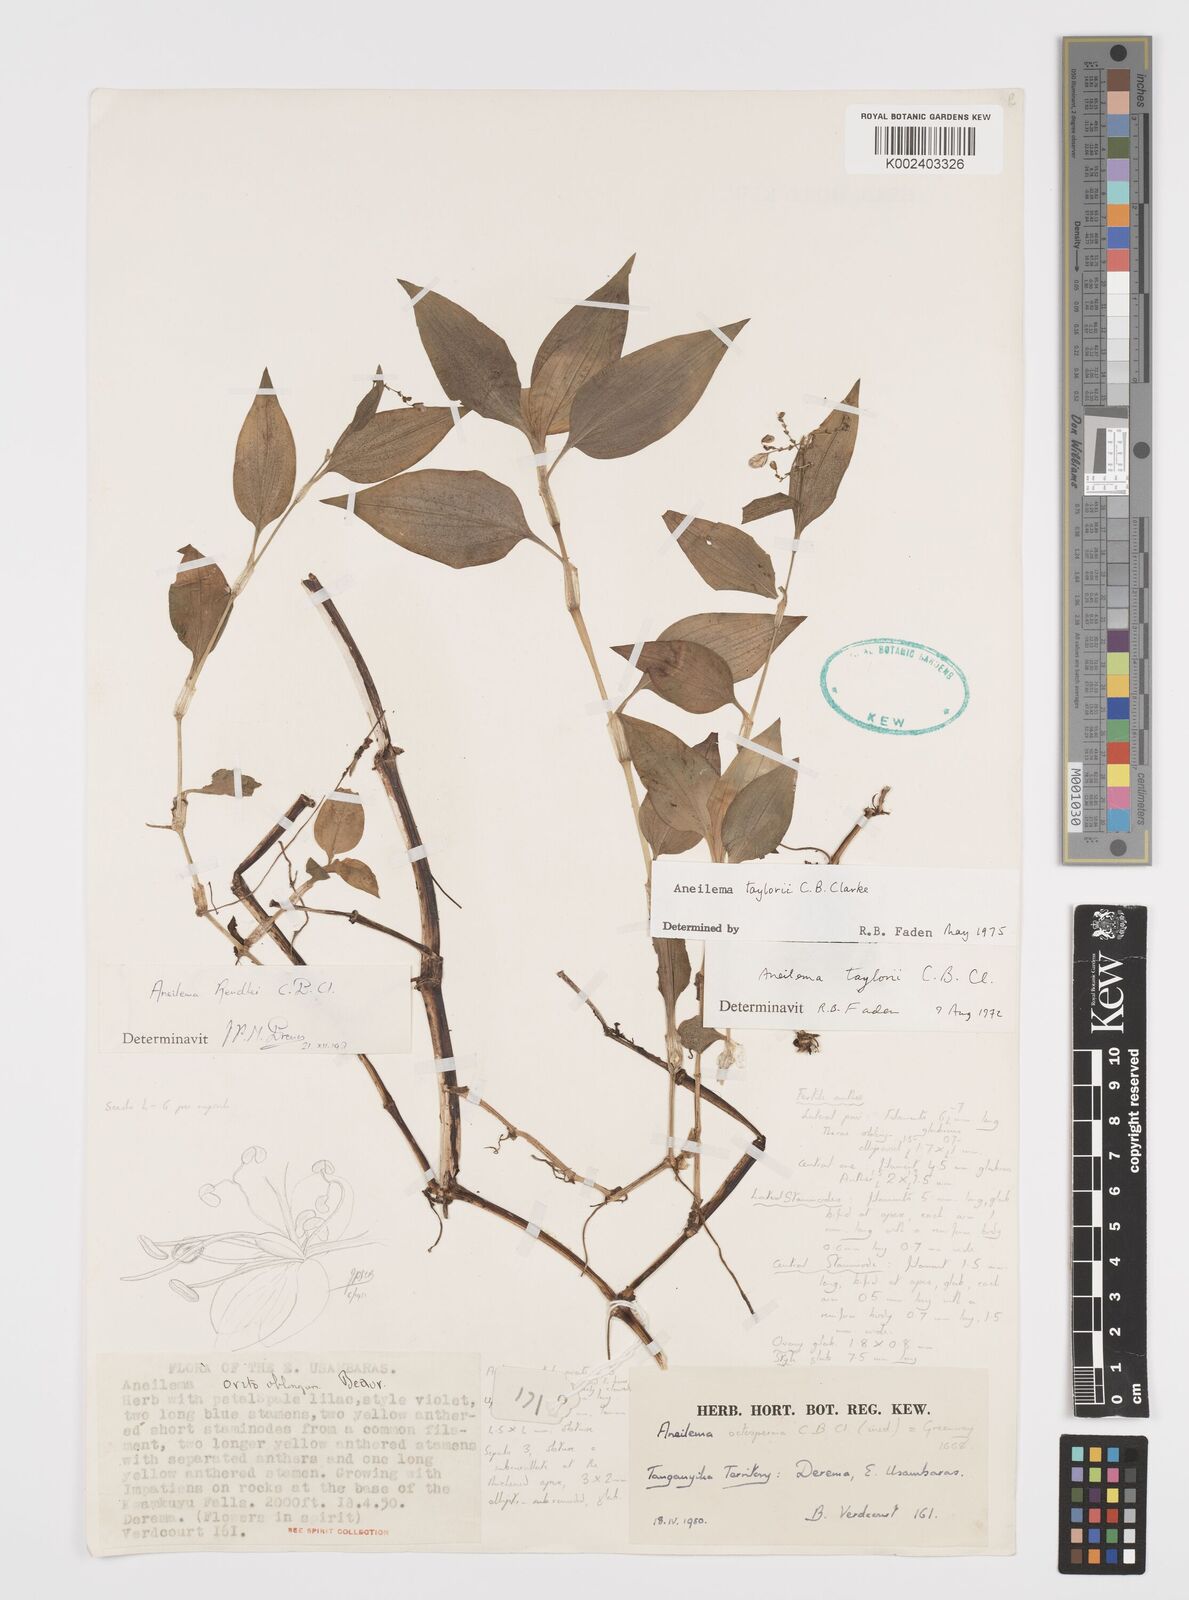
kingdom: Plantae
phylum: Tracheophyta
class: Liliopsida
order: Commelinales
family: Commelinaceae
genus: Aneilema
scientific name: Aneilema taylorii
